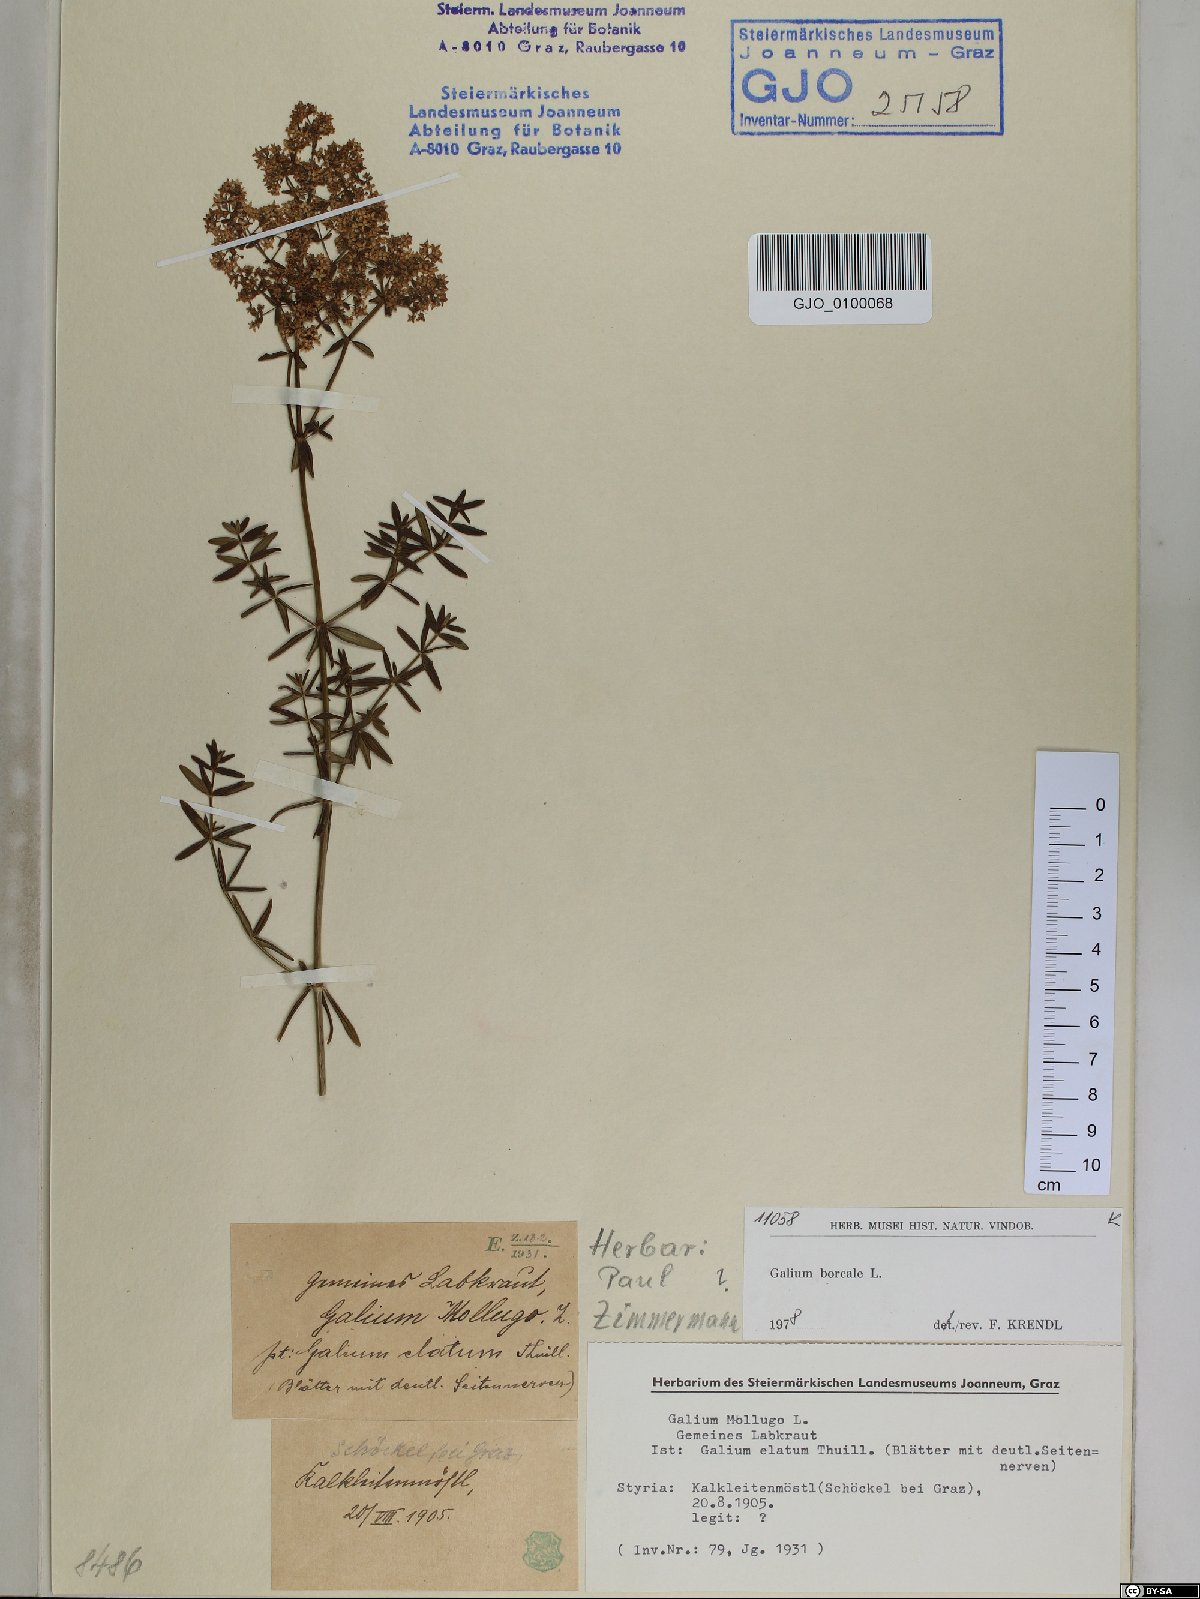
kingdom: Plantae
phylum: Tracheophyta
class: Magnoliopsida
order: Gentianales
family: Rubiaceae
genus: Galium
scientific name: Galium boreale
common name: Northern bedstraw
